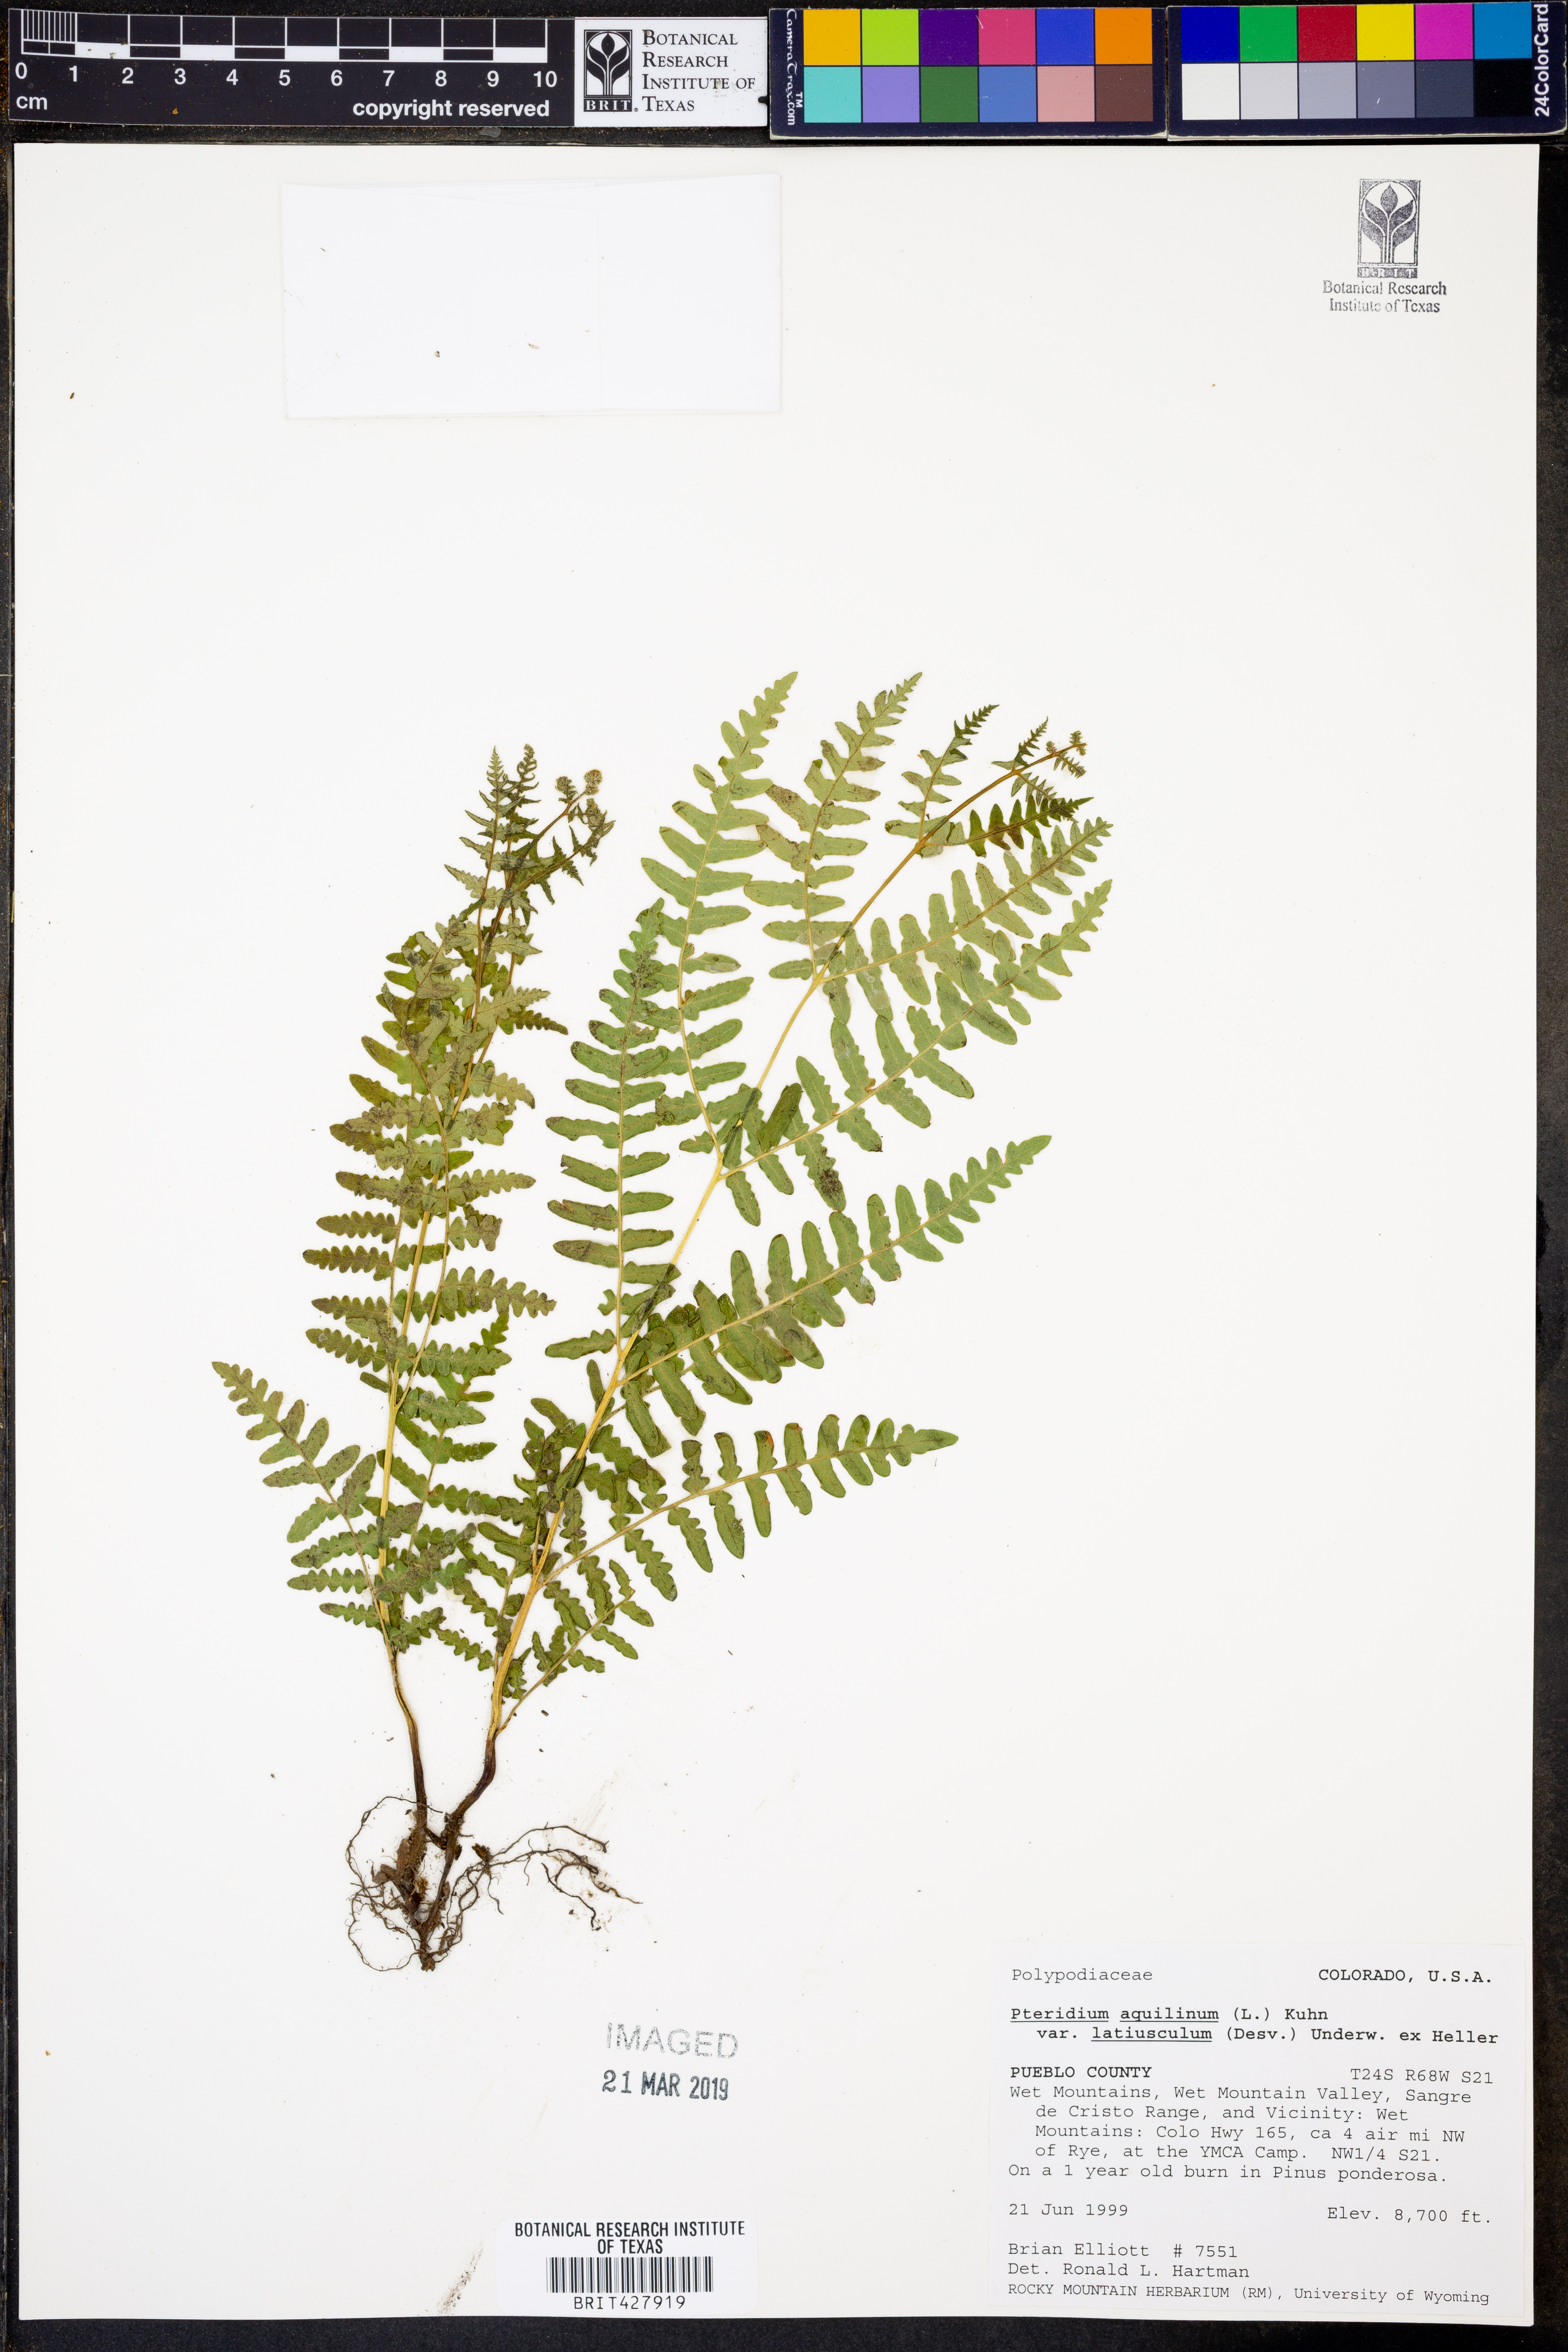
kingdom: Plantae
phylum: Tracheophyta
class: Polypodiopsida
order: Polypodiales
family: Dennstaedtiaceae
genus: Pteridium
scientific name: Pteridium aquilinum
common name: Bracken
